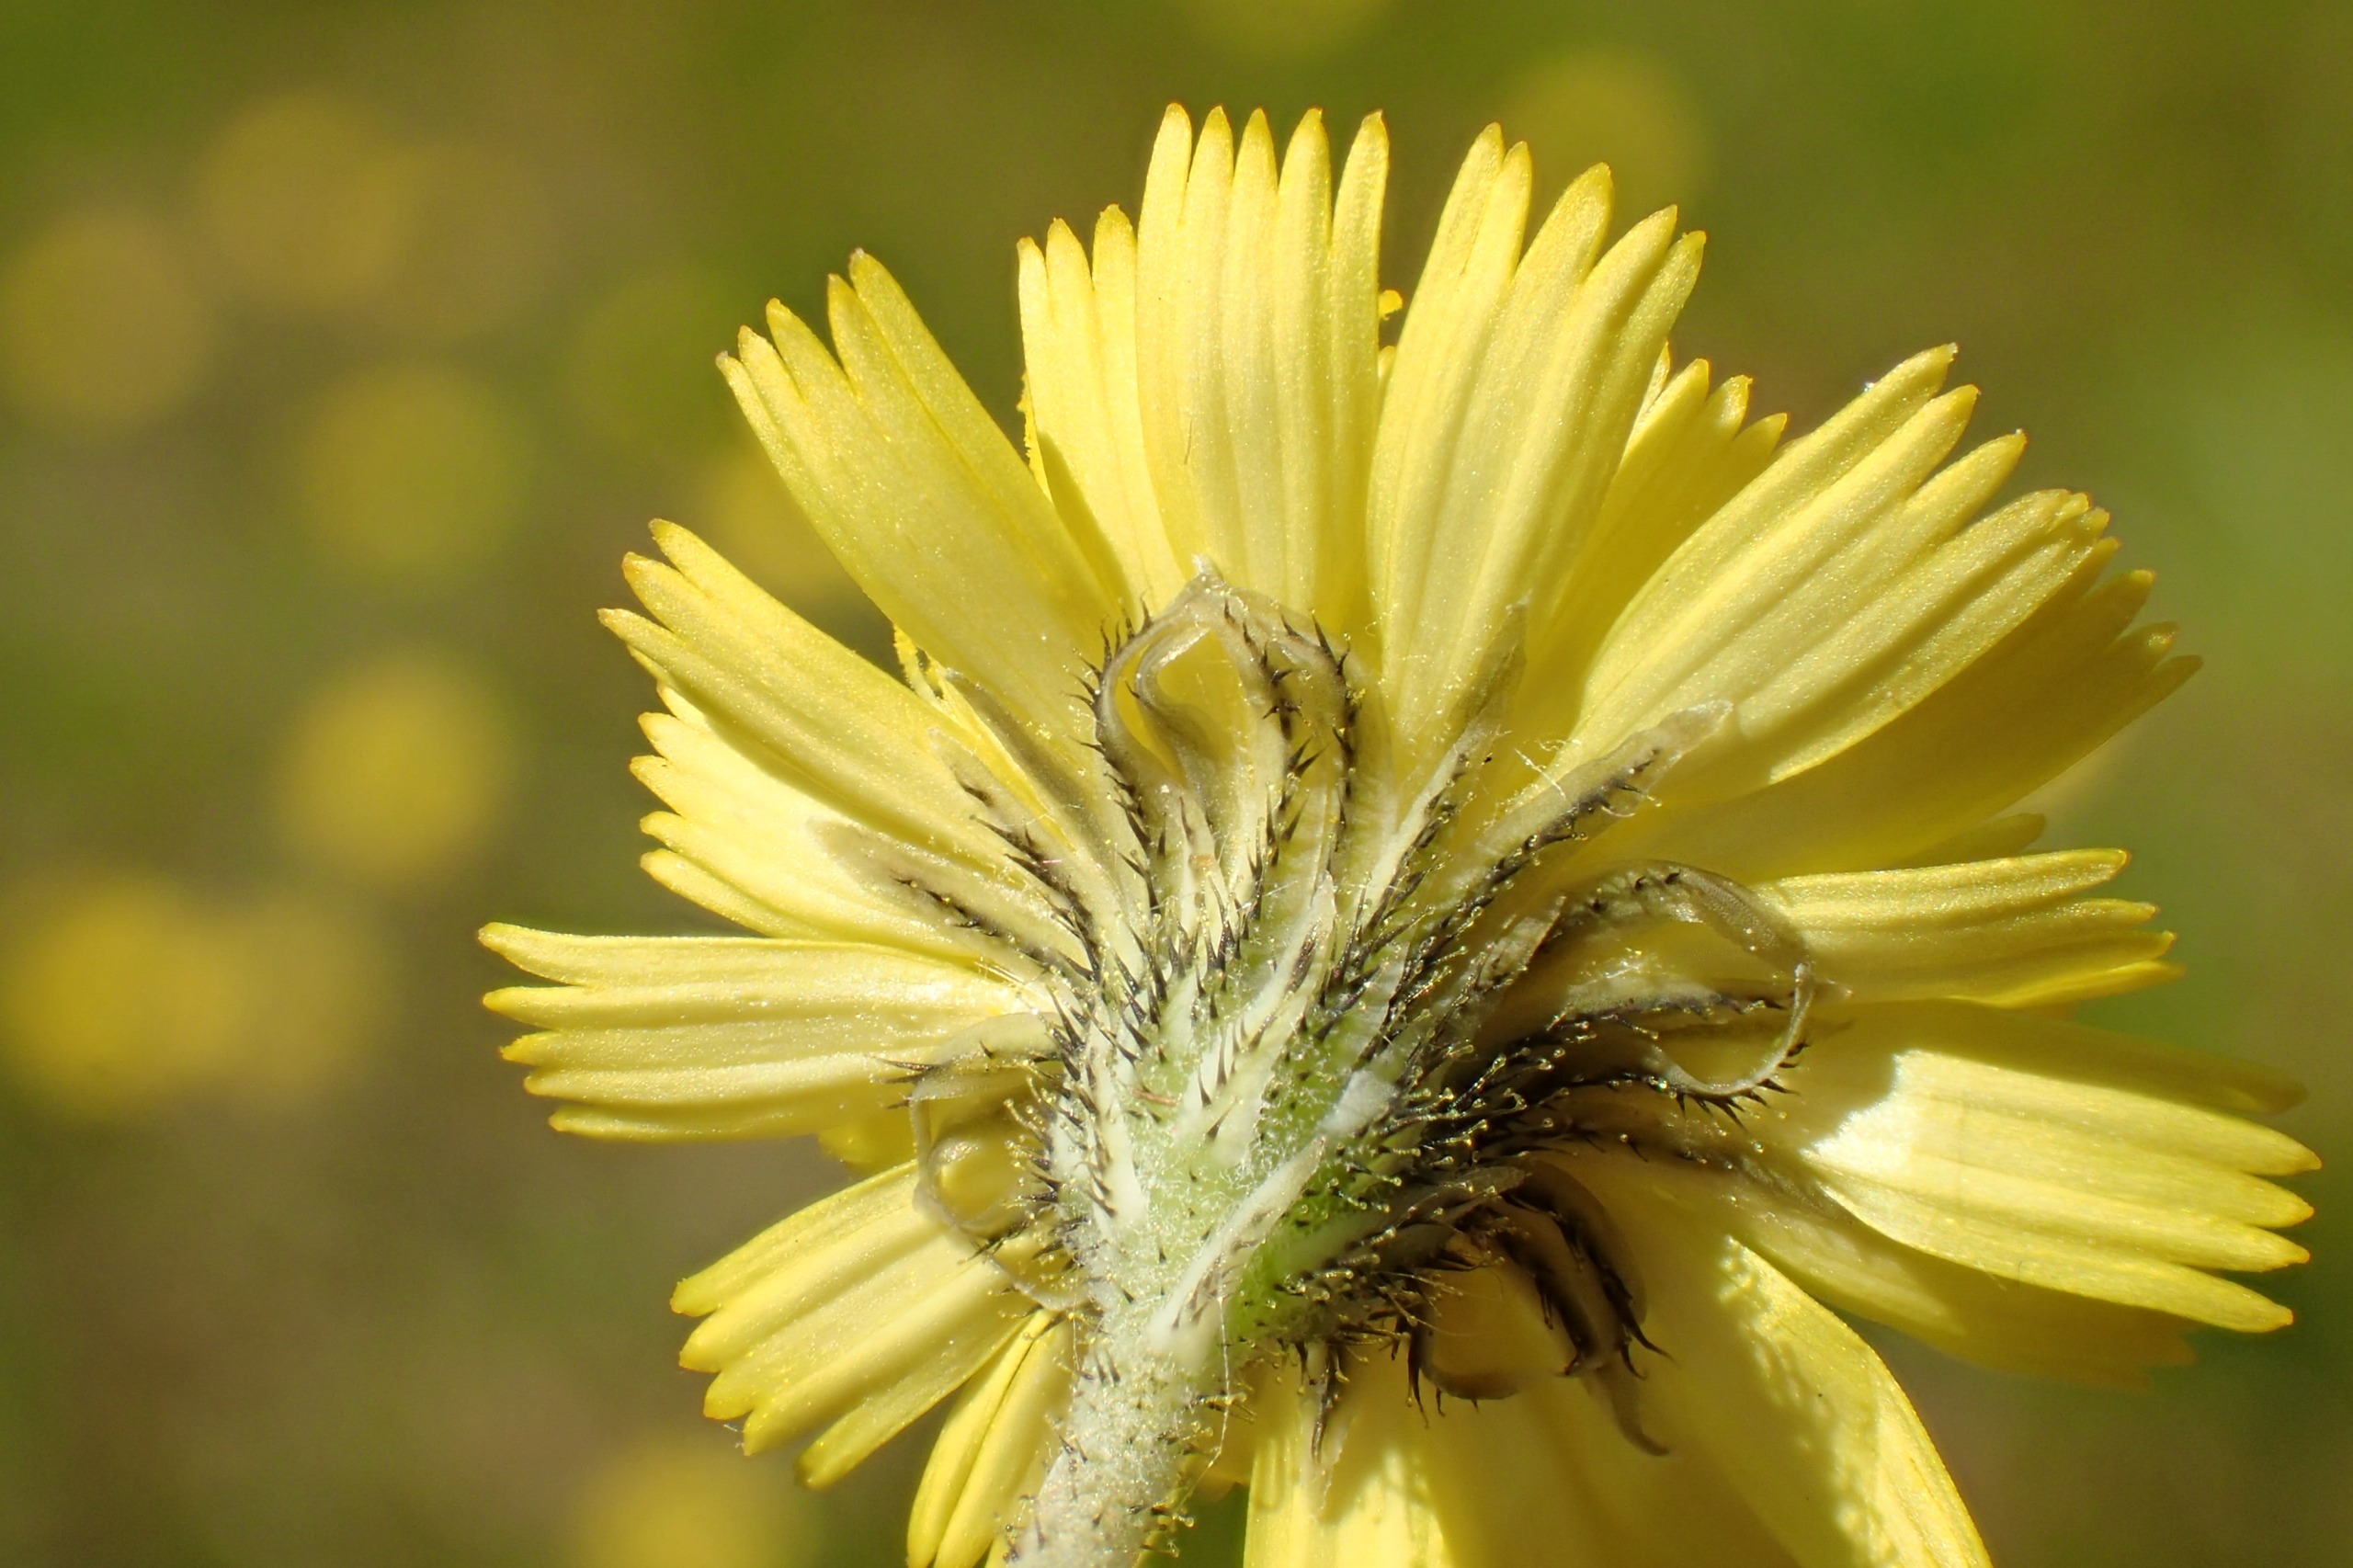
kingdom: Plantae
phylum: Tracheophyta
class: Magnoliopsida
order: Asterales
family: Asteraceae
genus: Pilosella
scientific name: Pilosella lactucella
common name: Lancetbladet høgeurt
